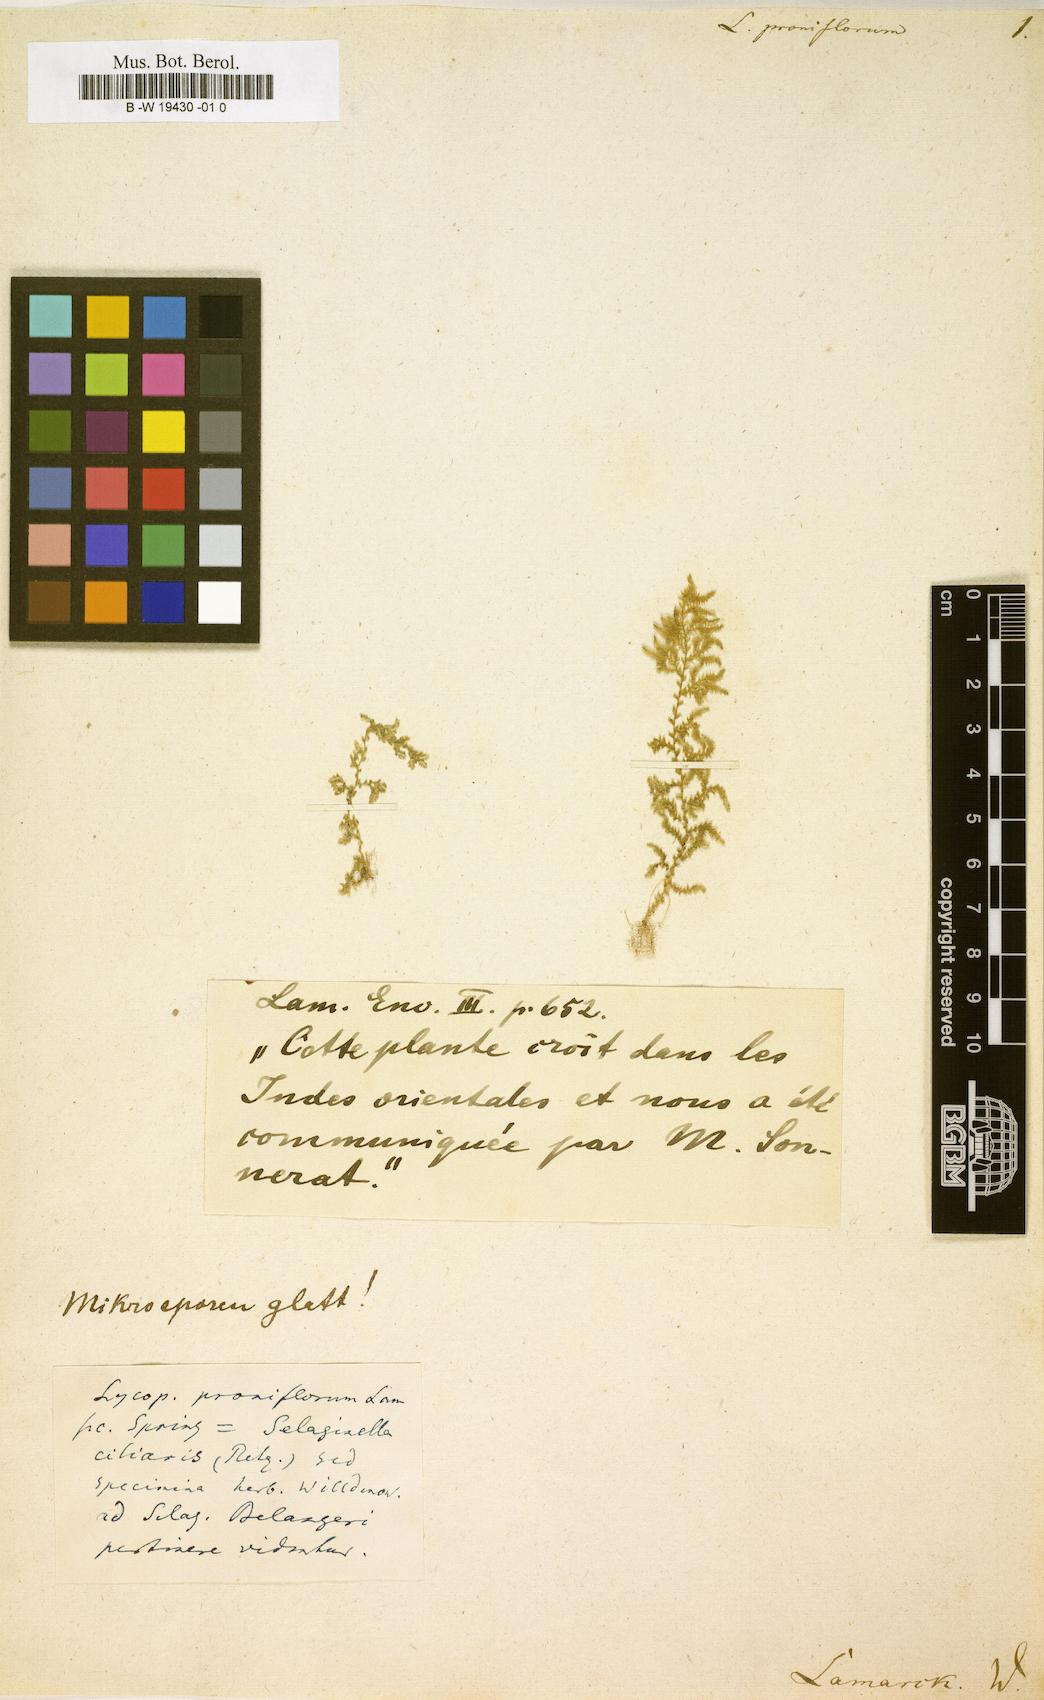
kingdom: Plantae
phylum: Tracheophyta
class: Lycopodiopsida
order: Selaginellales
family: Selaginellaceae
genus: Selaginella
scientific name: Selaginella proniflora
